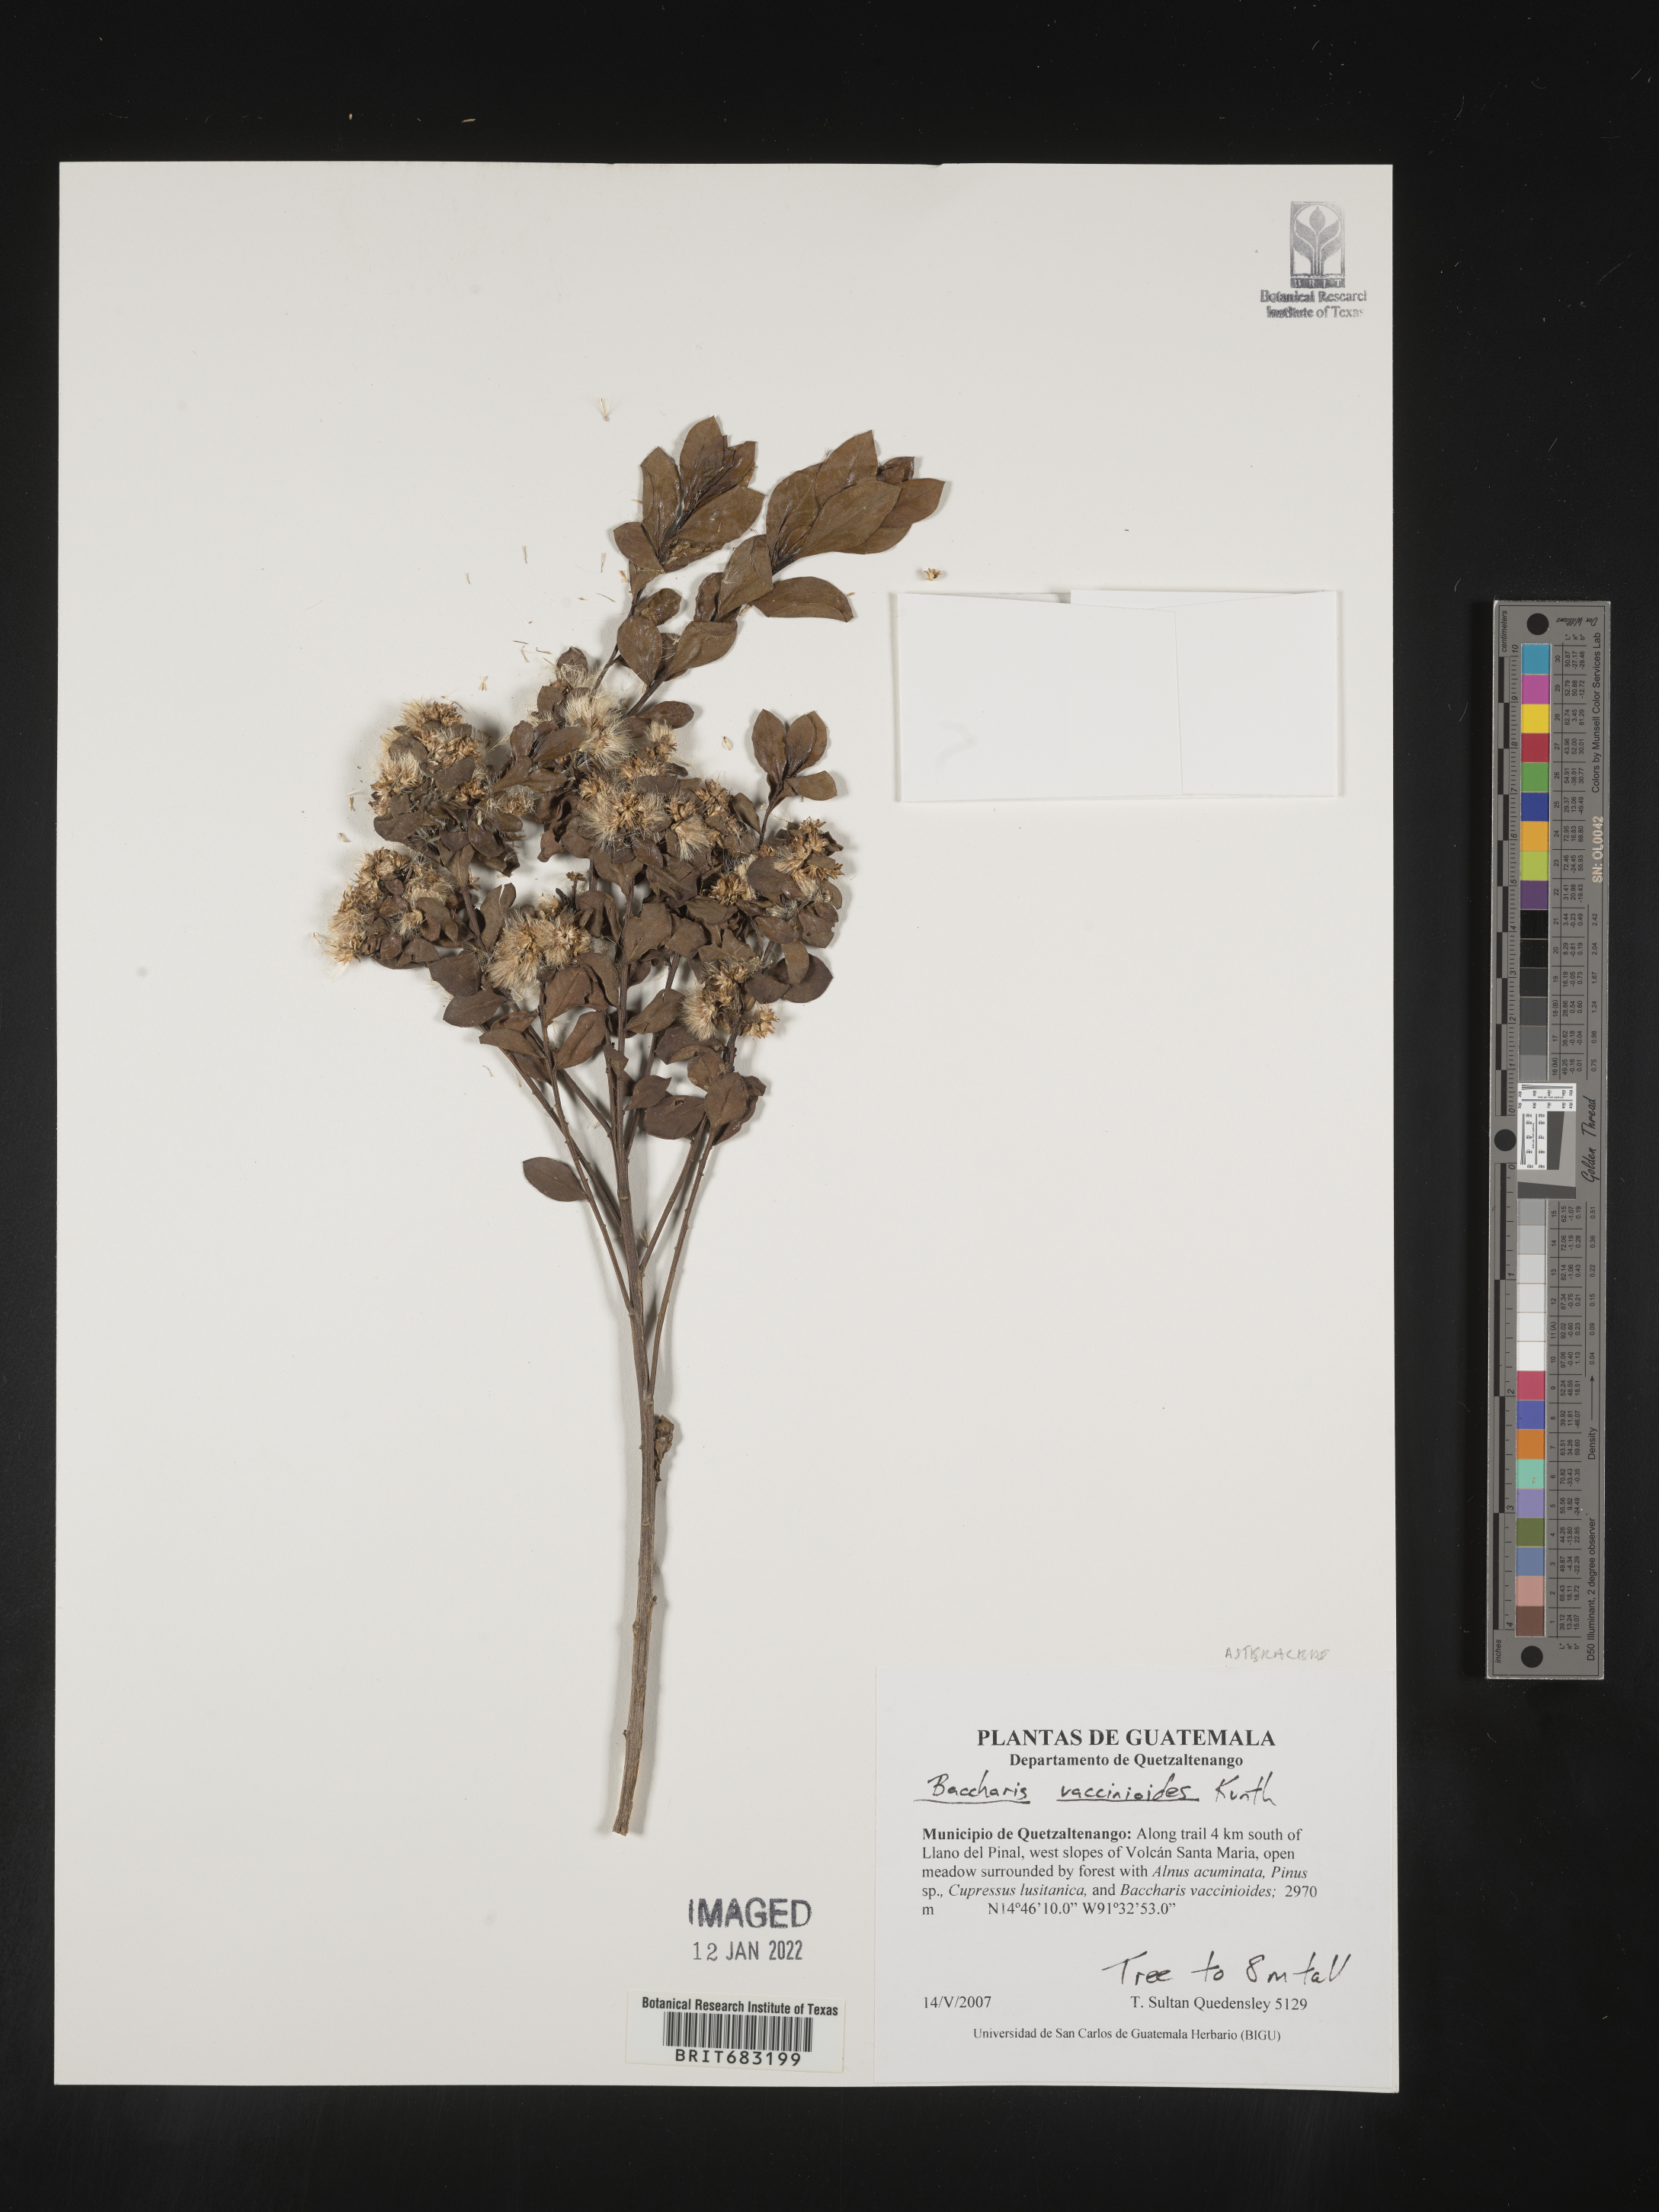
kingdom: Plantae
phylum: Tracheophyta
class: Magnoliopsida
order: Asterales
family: Asteraceae
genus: Baccharis
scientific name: Baccharis
